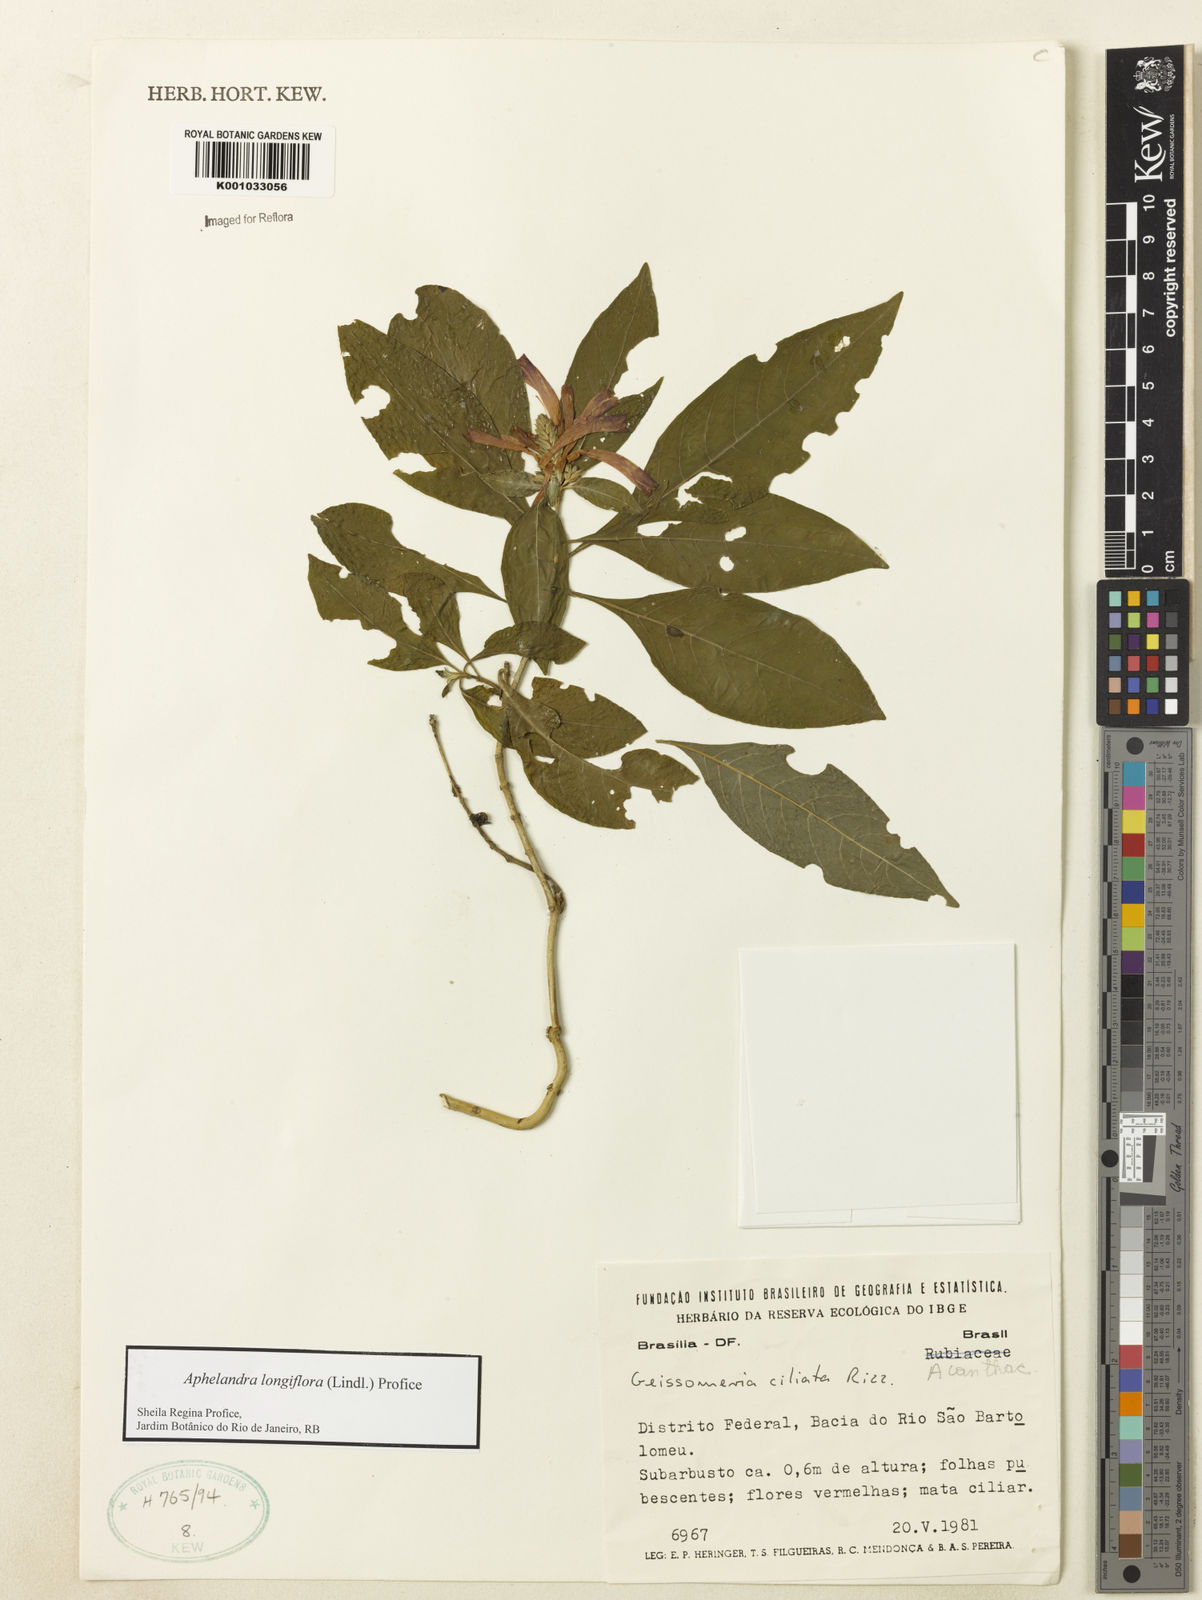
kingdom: Plantae
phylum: Tracheophyta
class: Magnoliopsida
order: Lamiales
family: Acanthaceae
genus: Aphelandra
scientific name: Aphelandra longiflora
